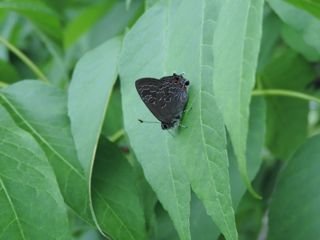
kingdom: Animalia
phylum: Arthropoda
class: Insecta
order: Lepidoptera
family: Lycaenidae
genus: Satyrium
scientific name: Satyrium calanus
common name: Banded Hairstreak
